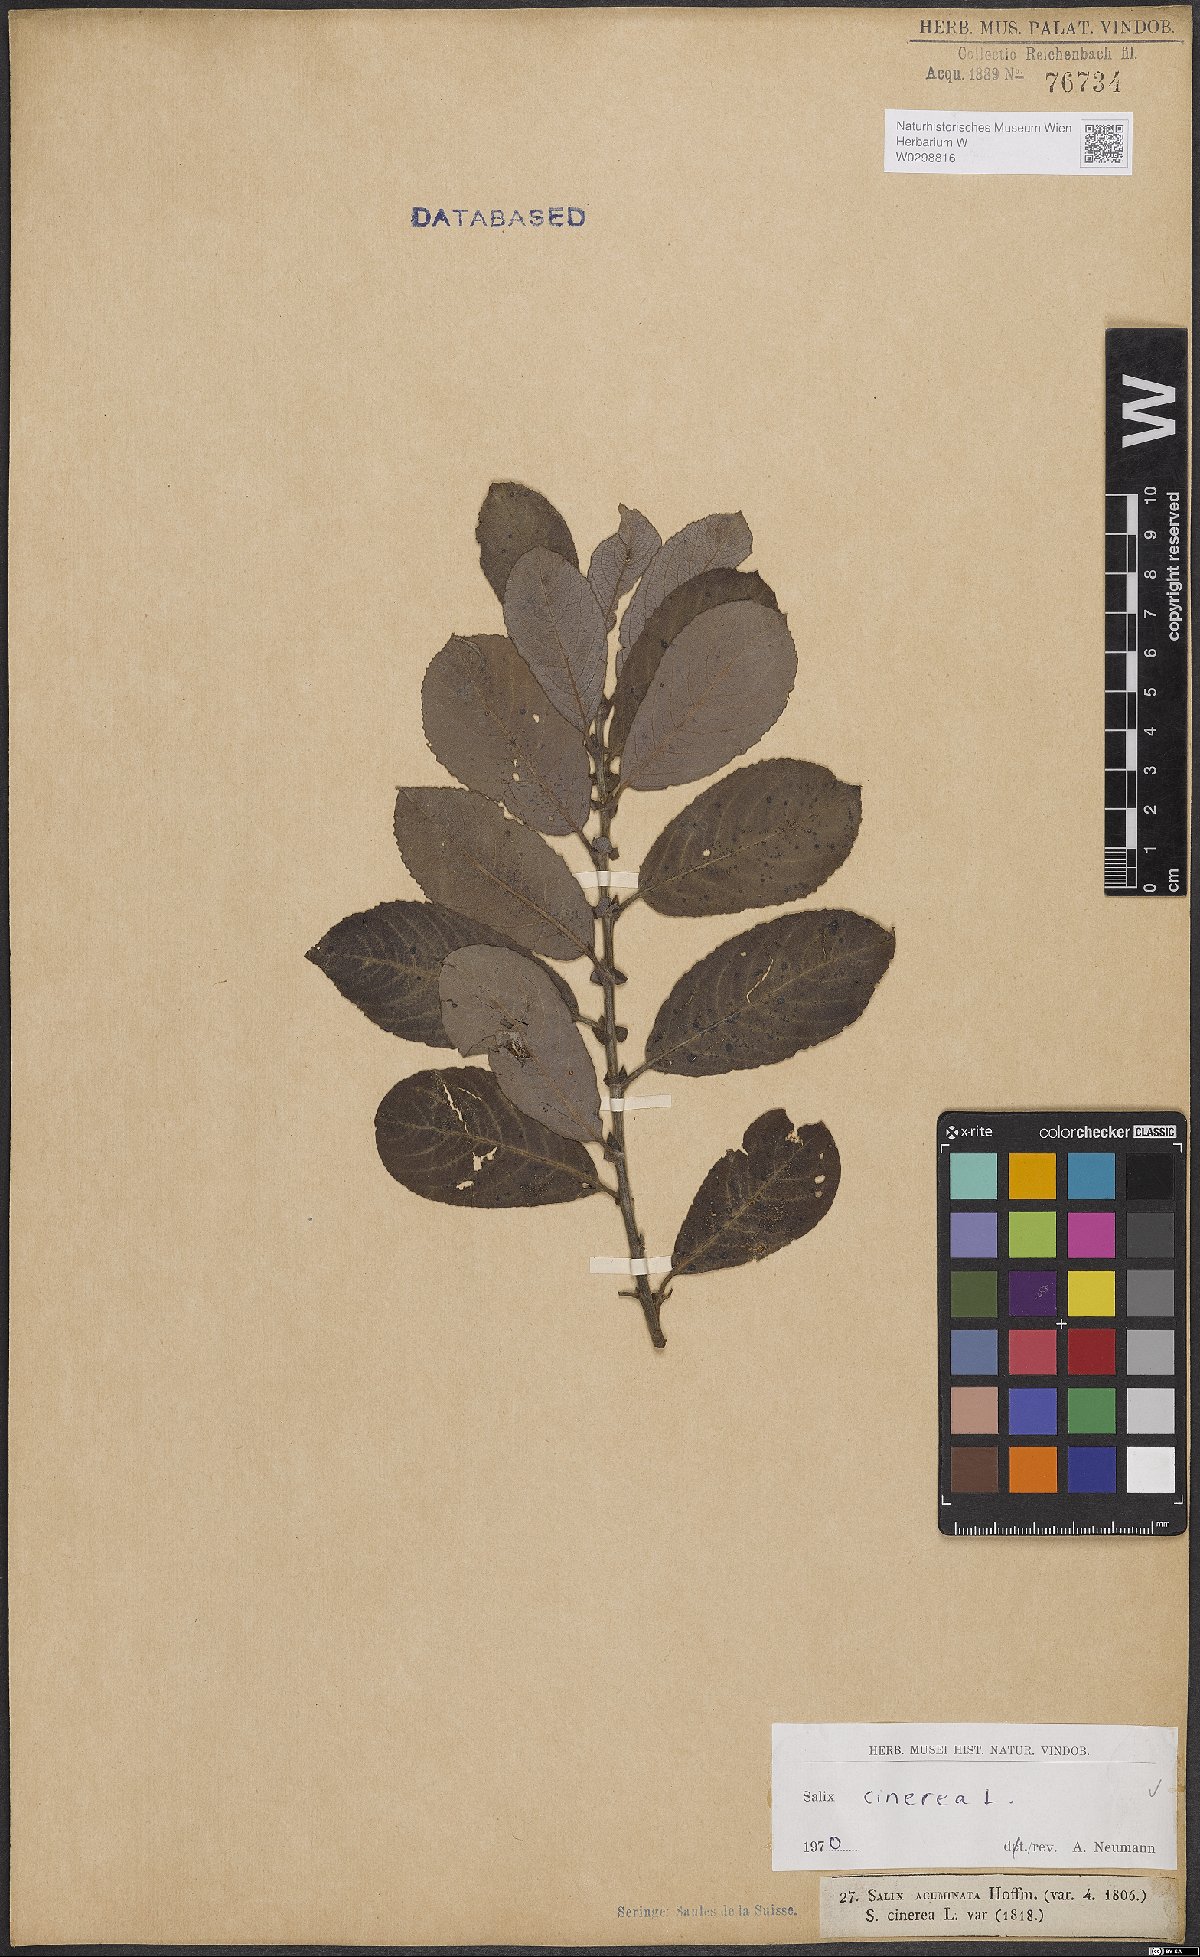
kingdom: Plantae
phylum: Tracheophyta
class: Magnoliopsida
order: Malpighiales
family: Salicaceae
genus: Salix
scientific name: Salix cinerea
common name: Common sallow
